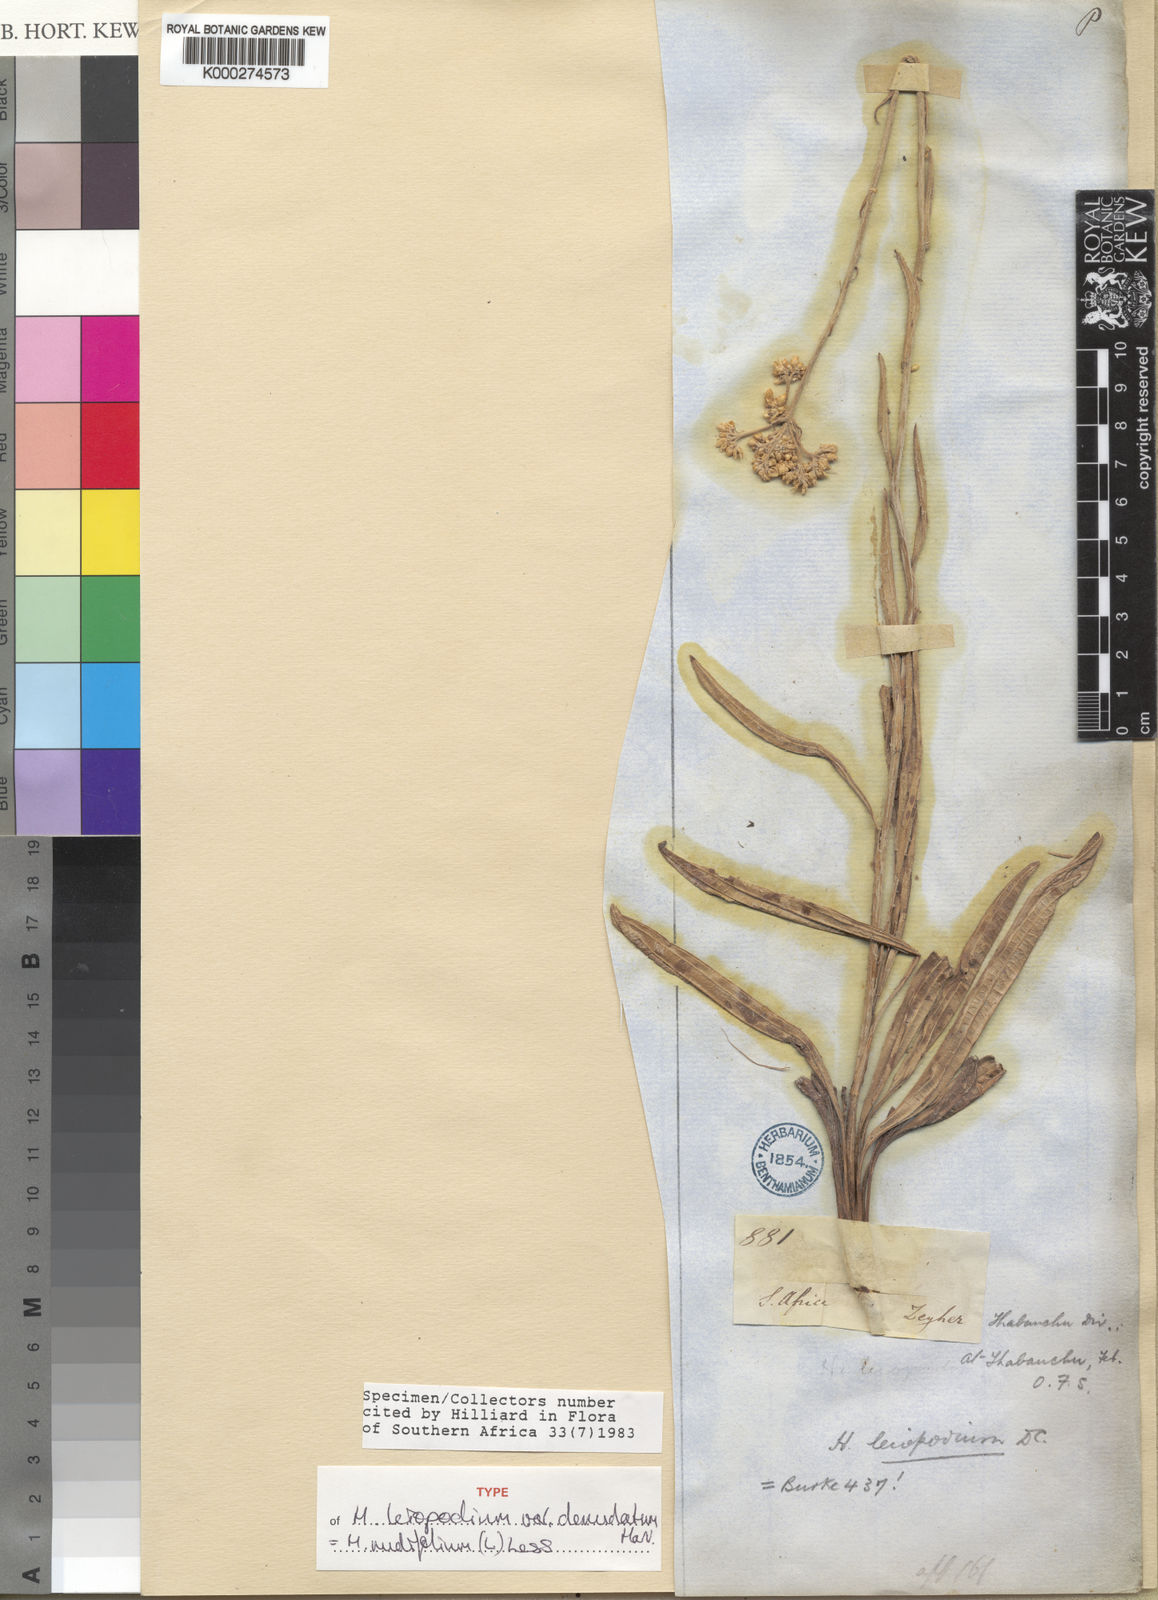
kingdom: Plantae
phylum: Tracheophyta
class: Magnoliopsida
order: Asterales
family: Asteraceae
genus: Helichrysum
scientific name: Helichrysum nudifolium
